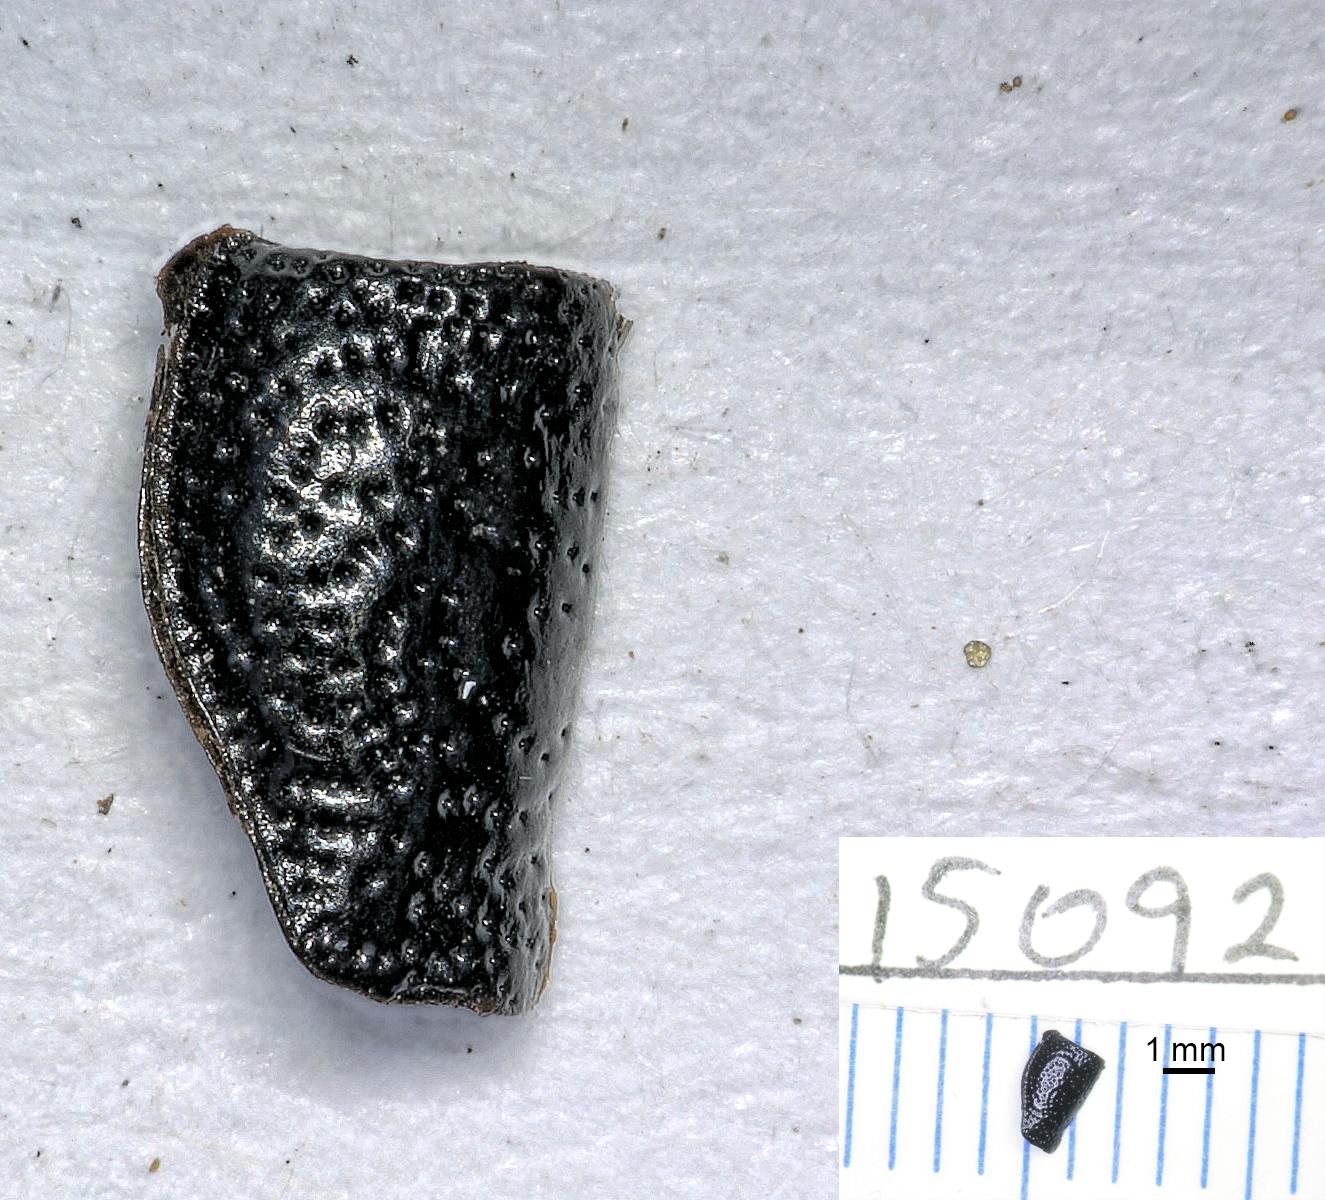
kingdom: Animalia
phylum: Arthropoda
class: Insecta
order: Coleoptera
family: Carabidae
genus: Dicheirus
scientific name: Dicheirus dilatatus
